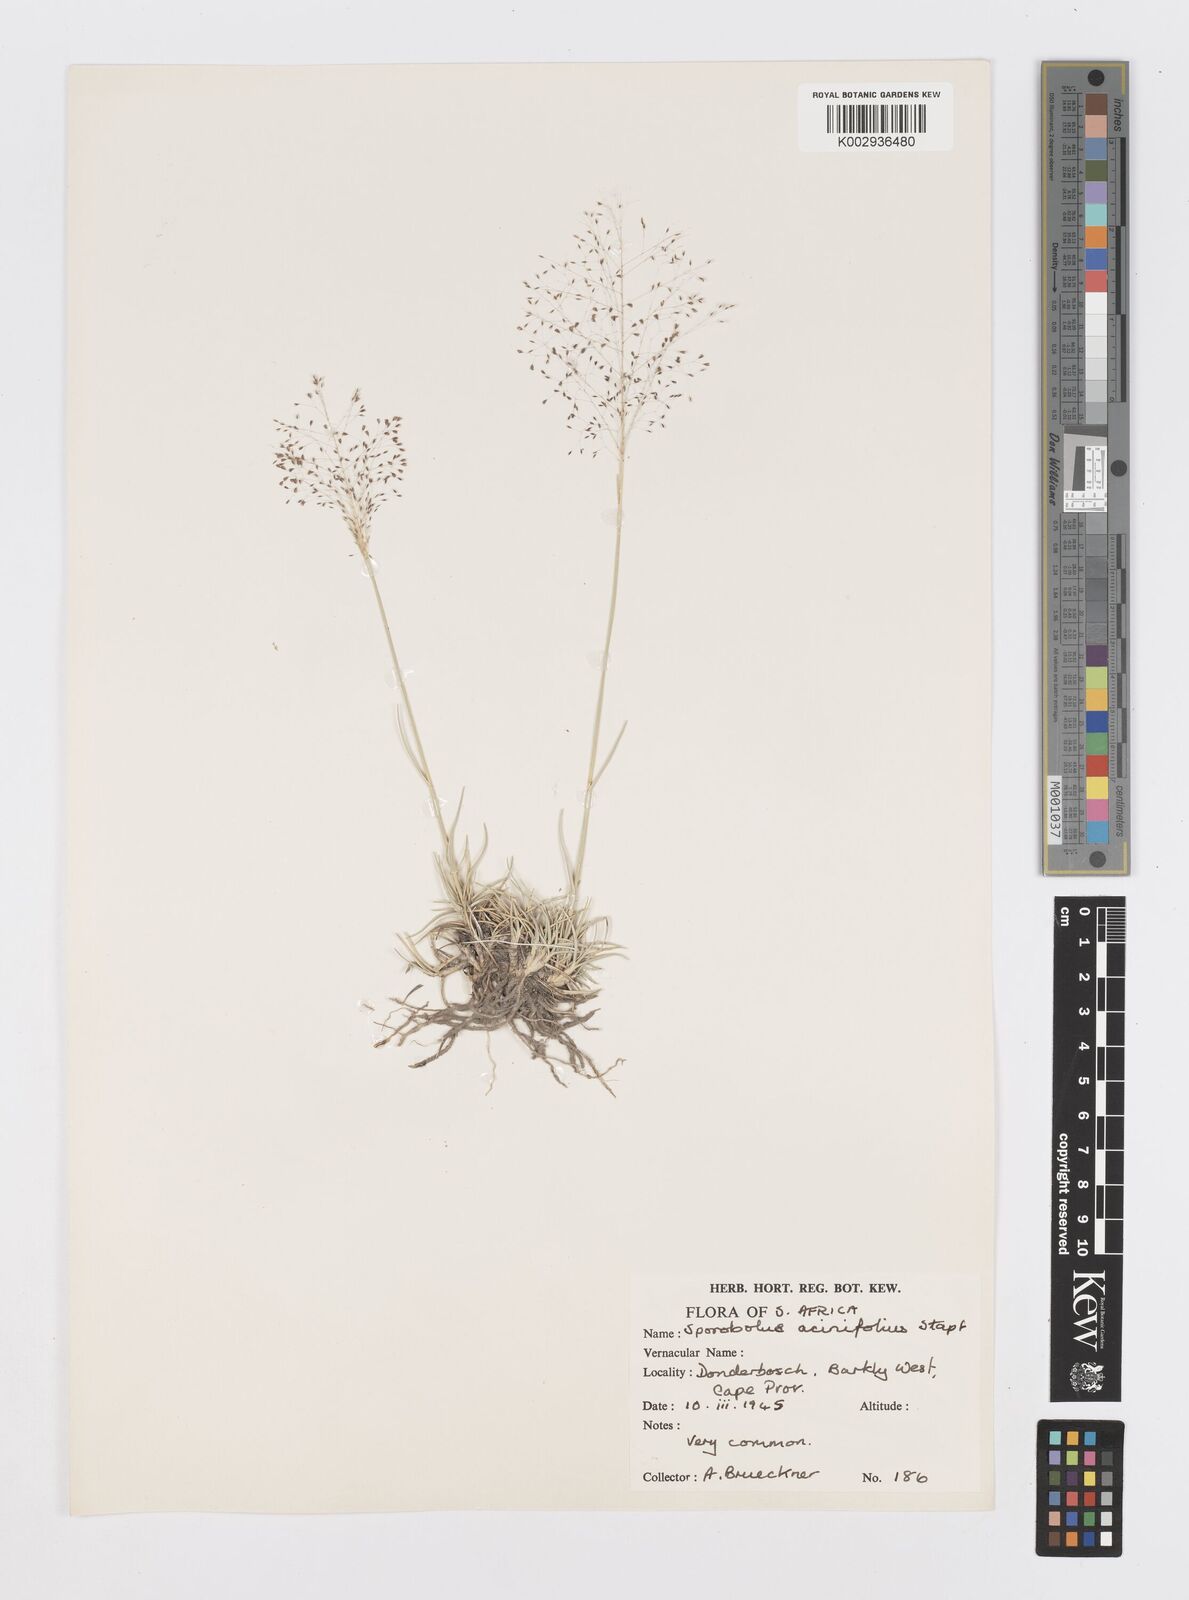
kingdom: Plantae
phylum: Tracheophyta
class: Liliopsida
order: Poales
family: Poaceae
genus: Sporobolus
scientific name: Sporobolus acinifolius
